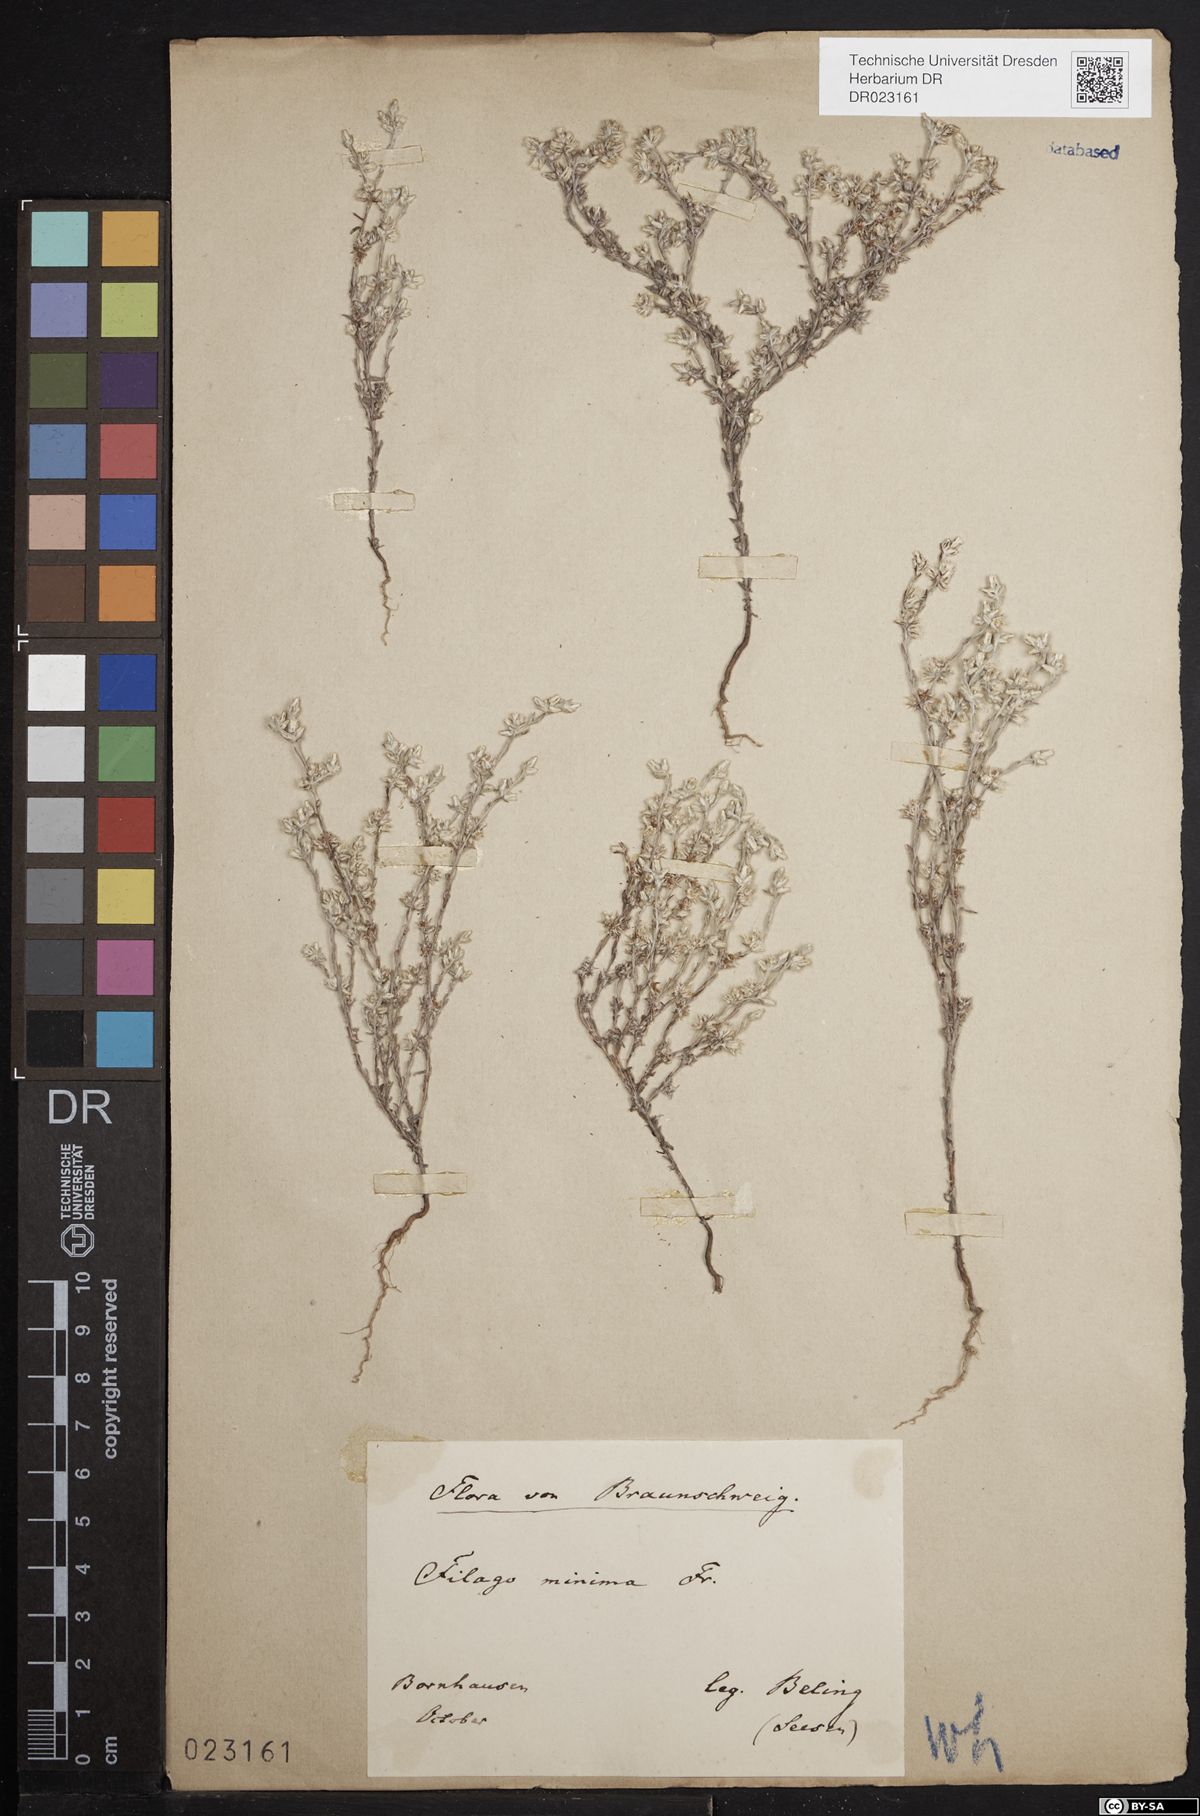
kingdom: Plantae
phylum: Tracheophyta
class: Magnoliopsida
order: Asterales
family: Asteraceae
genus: Logfia
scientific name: Logfia minima
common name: Little cottonrose
